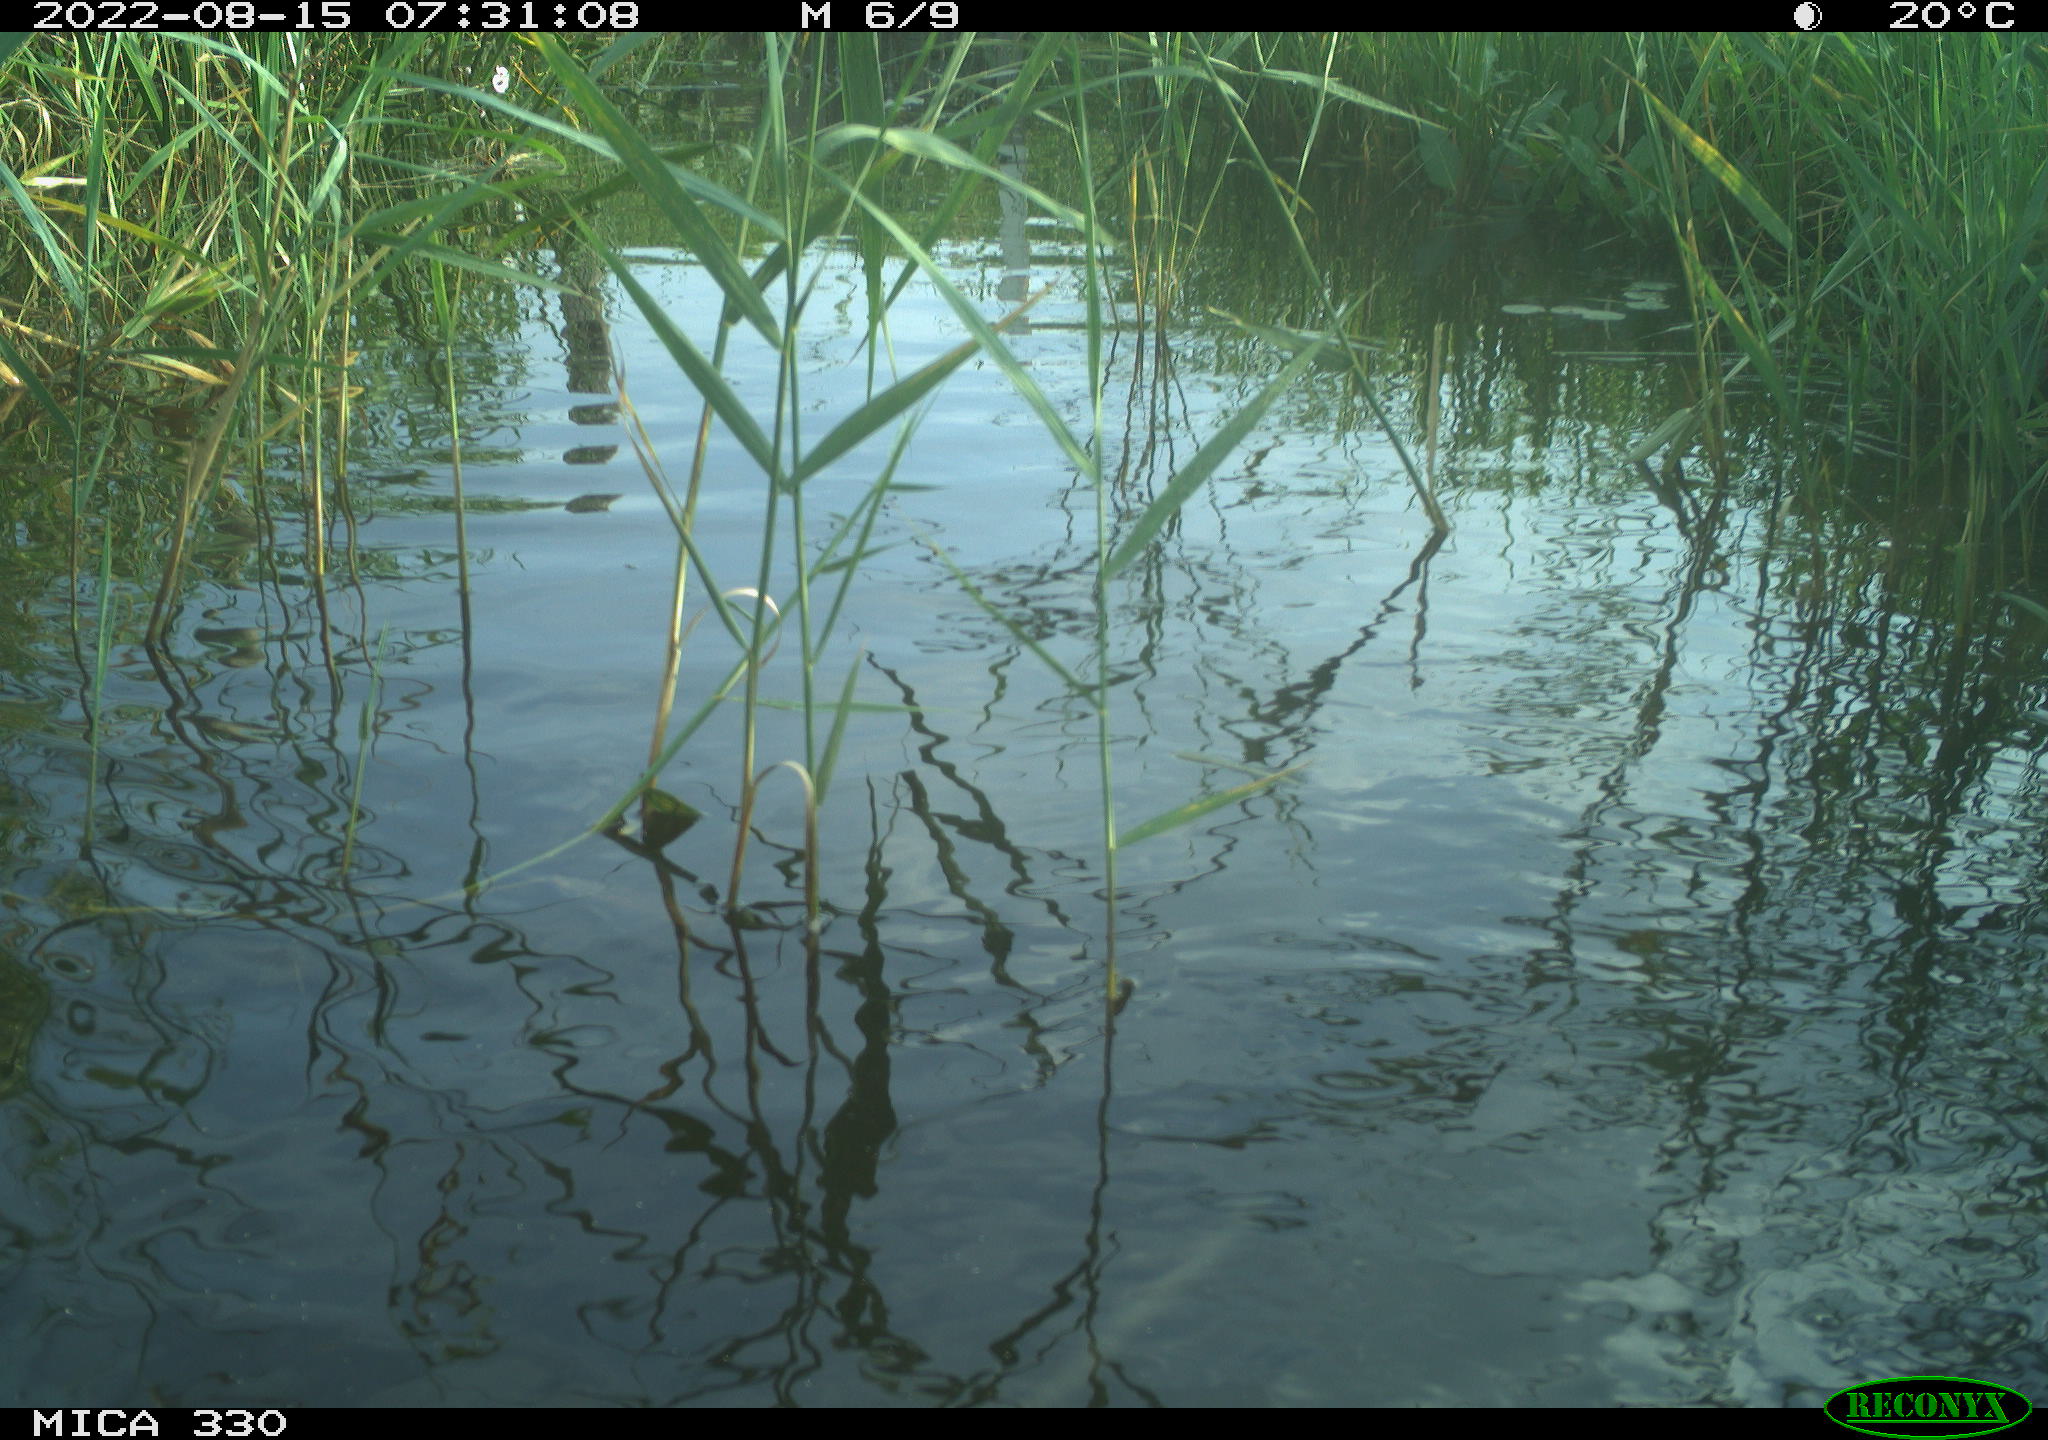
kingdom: Animalia
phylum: Chordata
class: Aves
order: Anseriformes
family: Anatidae
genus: Anas
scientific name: Anas platyrhynchos
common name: Mallard
